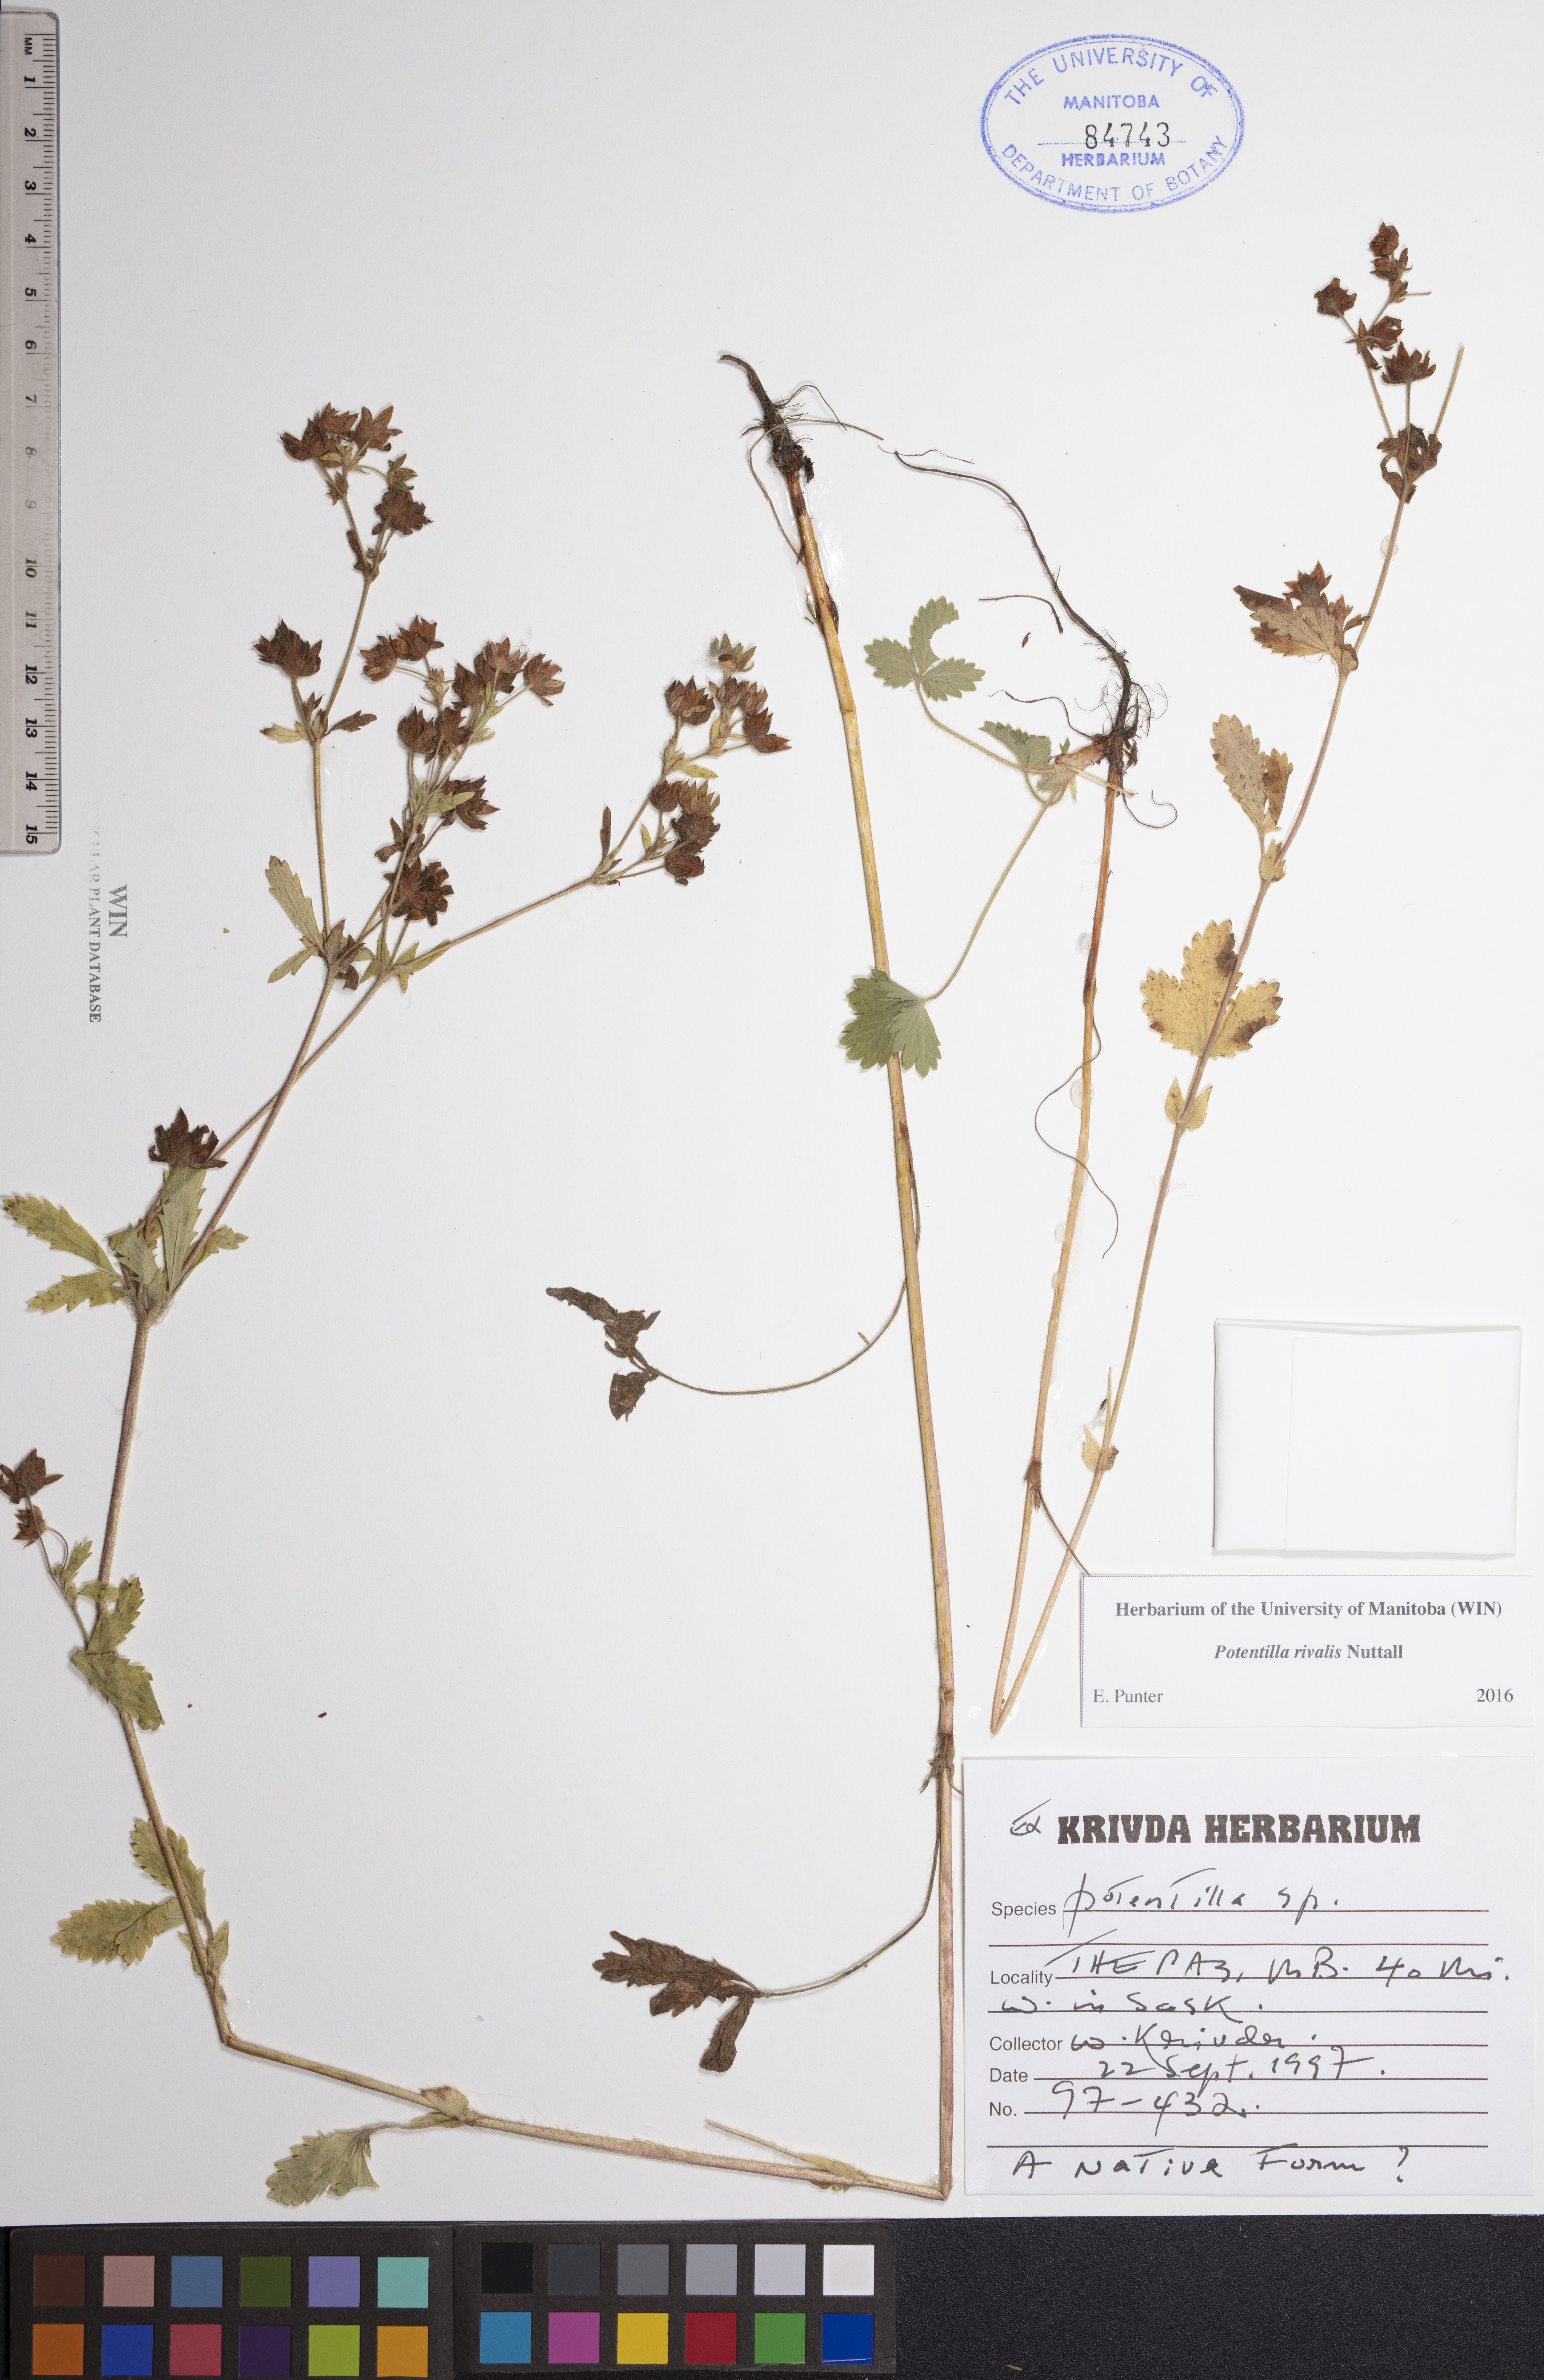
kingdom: Plantae
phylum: Tracheophyta
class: Magnoliopsida
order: Rosales
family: Rosaceae
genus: Potentilla
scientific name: Potentilla rivalis
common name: Brook cinquefoil
